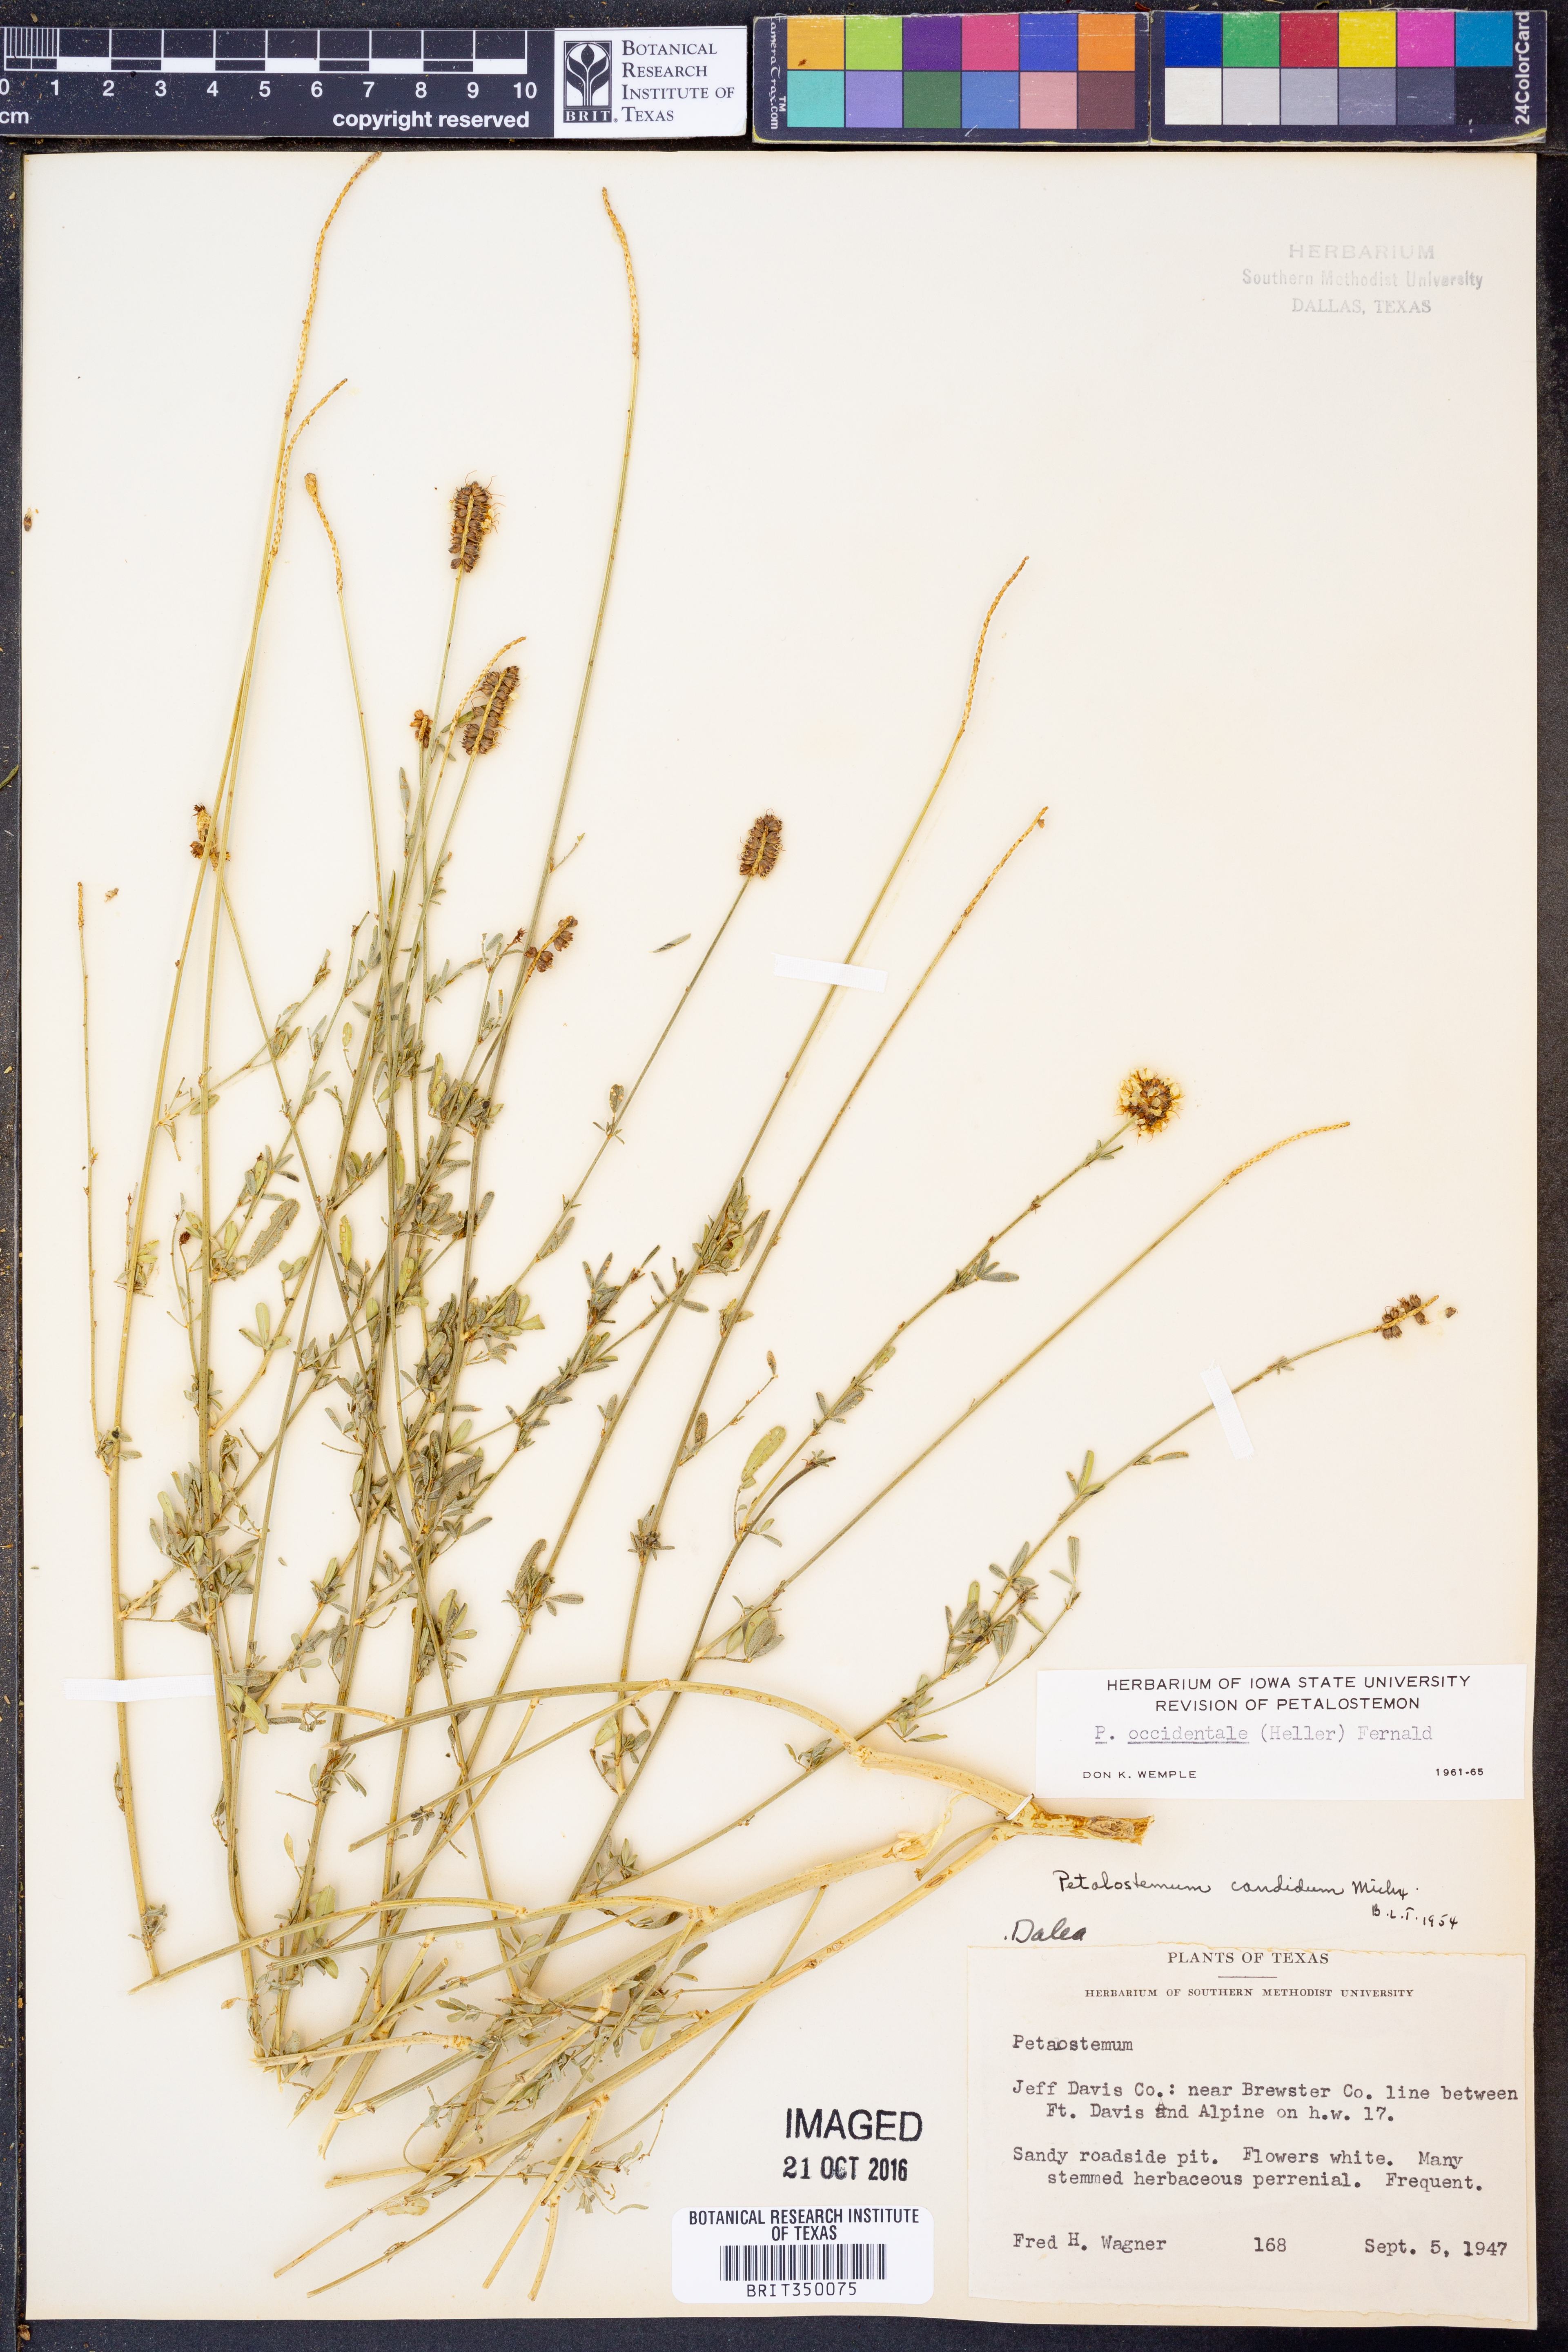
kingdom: Plantae
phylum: Tracheophyta
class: Magnoliopsida
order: Fabales
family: Fabaceae
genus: Dalea
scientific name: Dalea candida
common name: White prairie-clover
